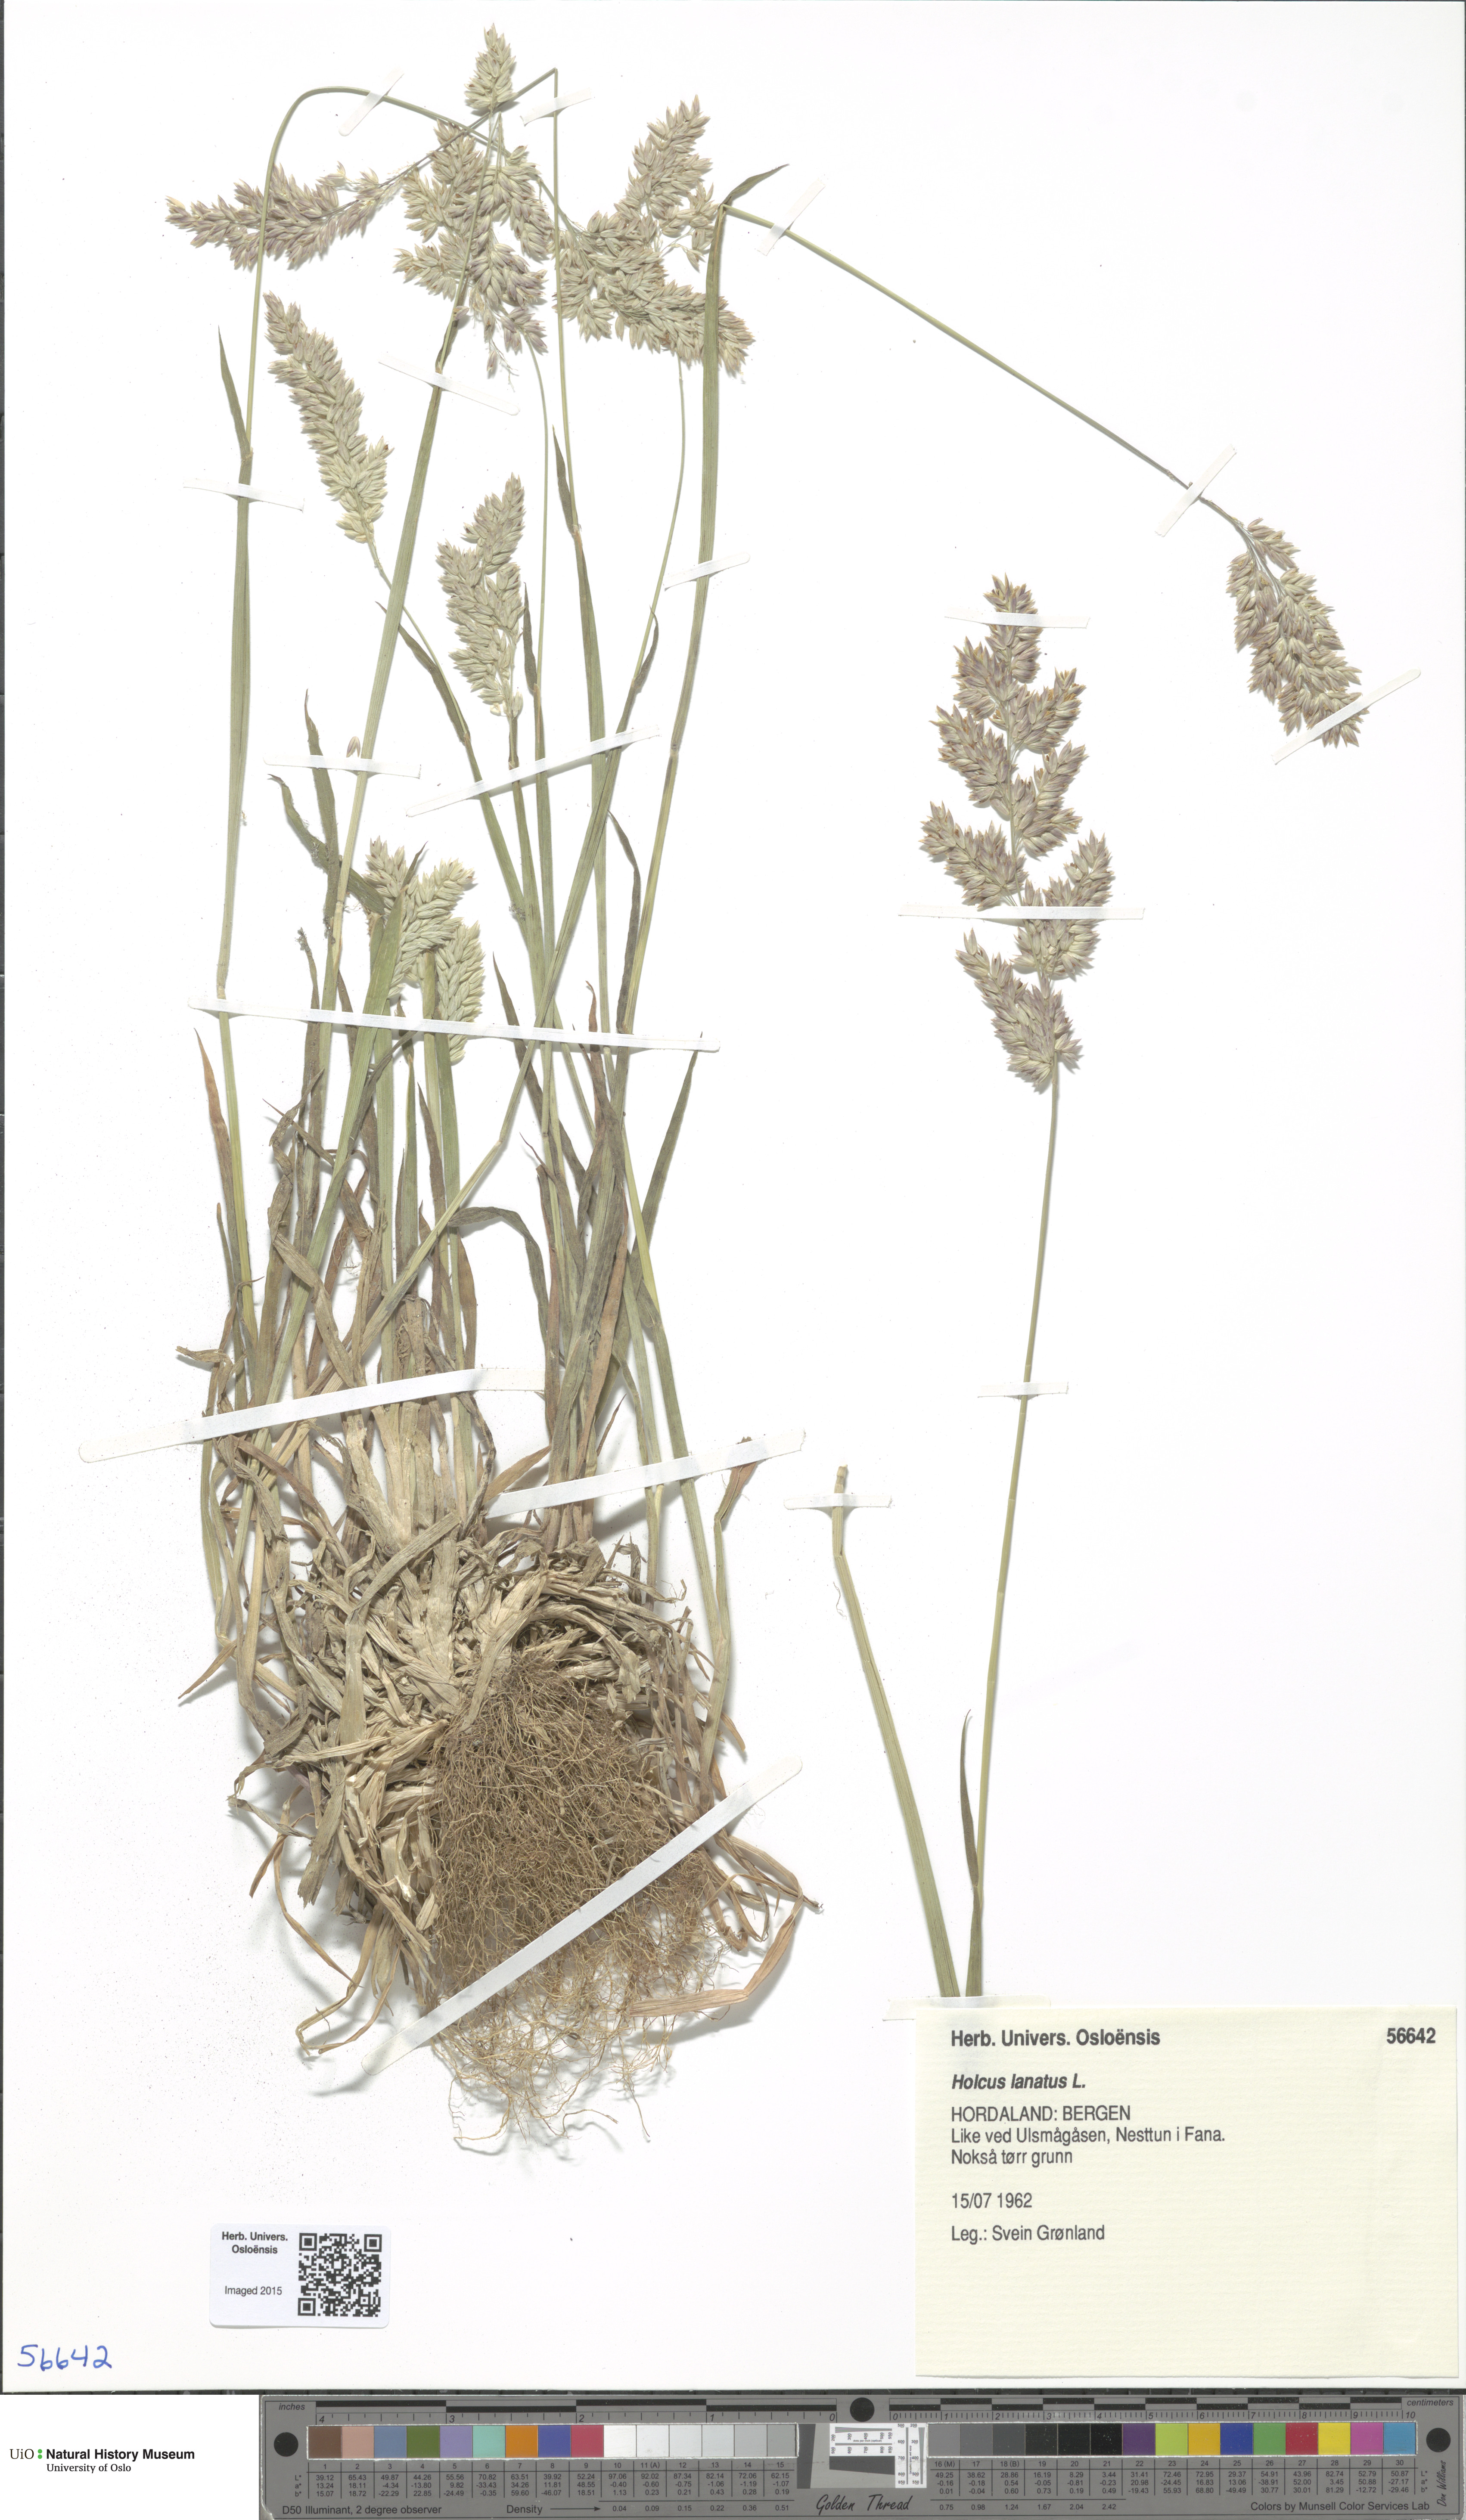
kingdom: Plantae
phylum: Tracheophyta
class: Liliopsida
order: Poales
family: Poaceae
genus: Holcus
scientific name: Holcus lanatus
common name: Yorkshire-fog
